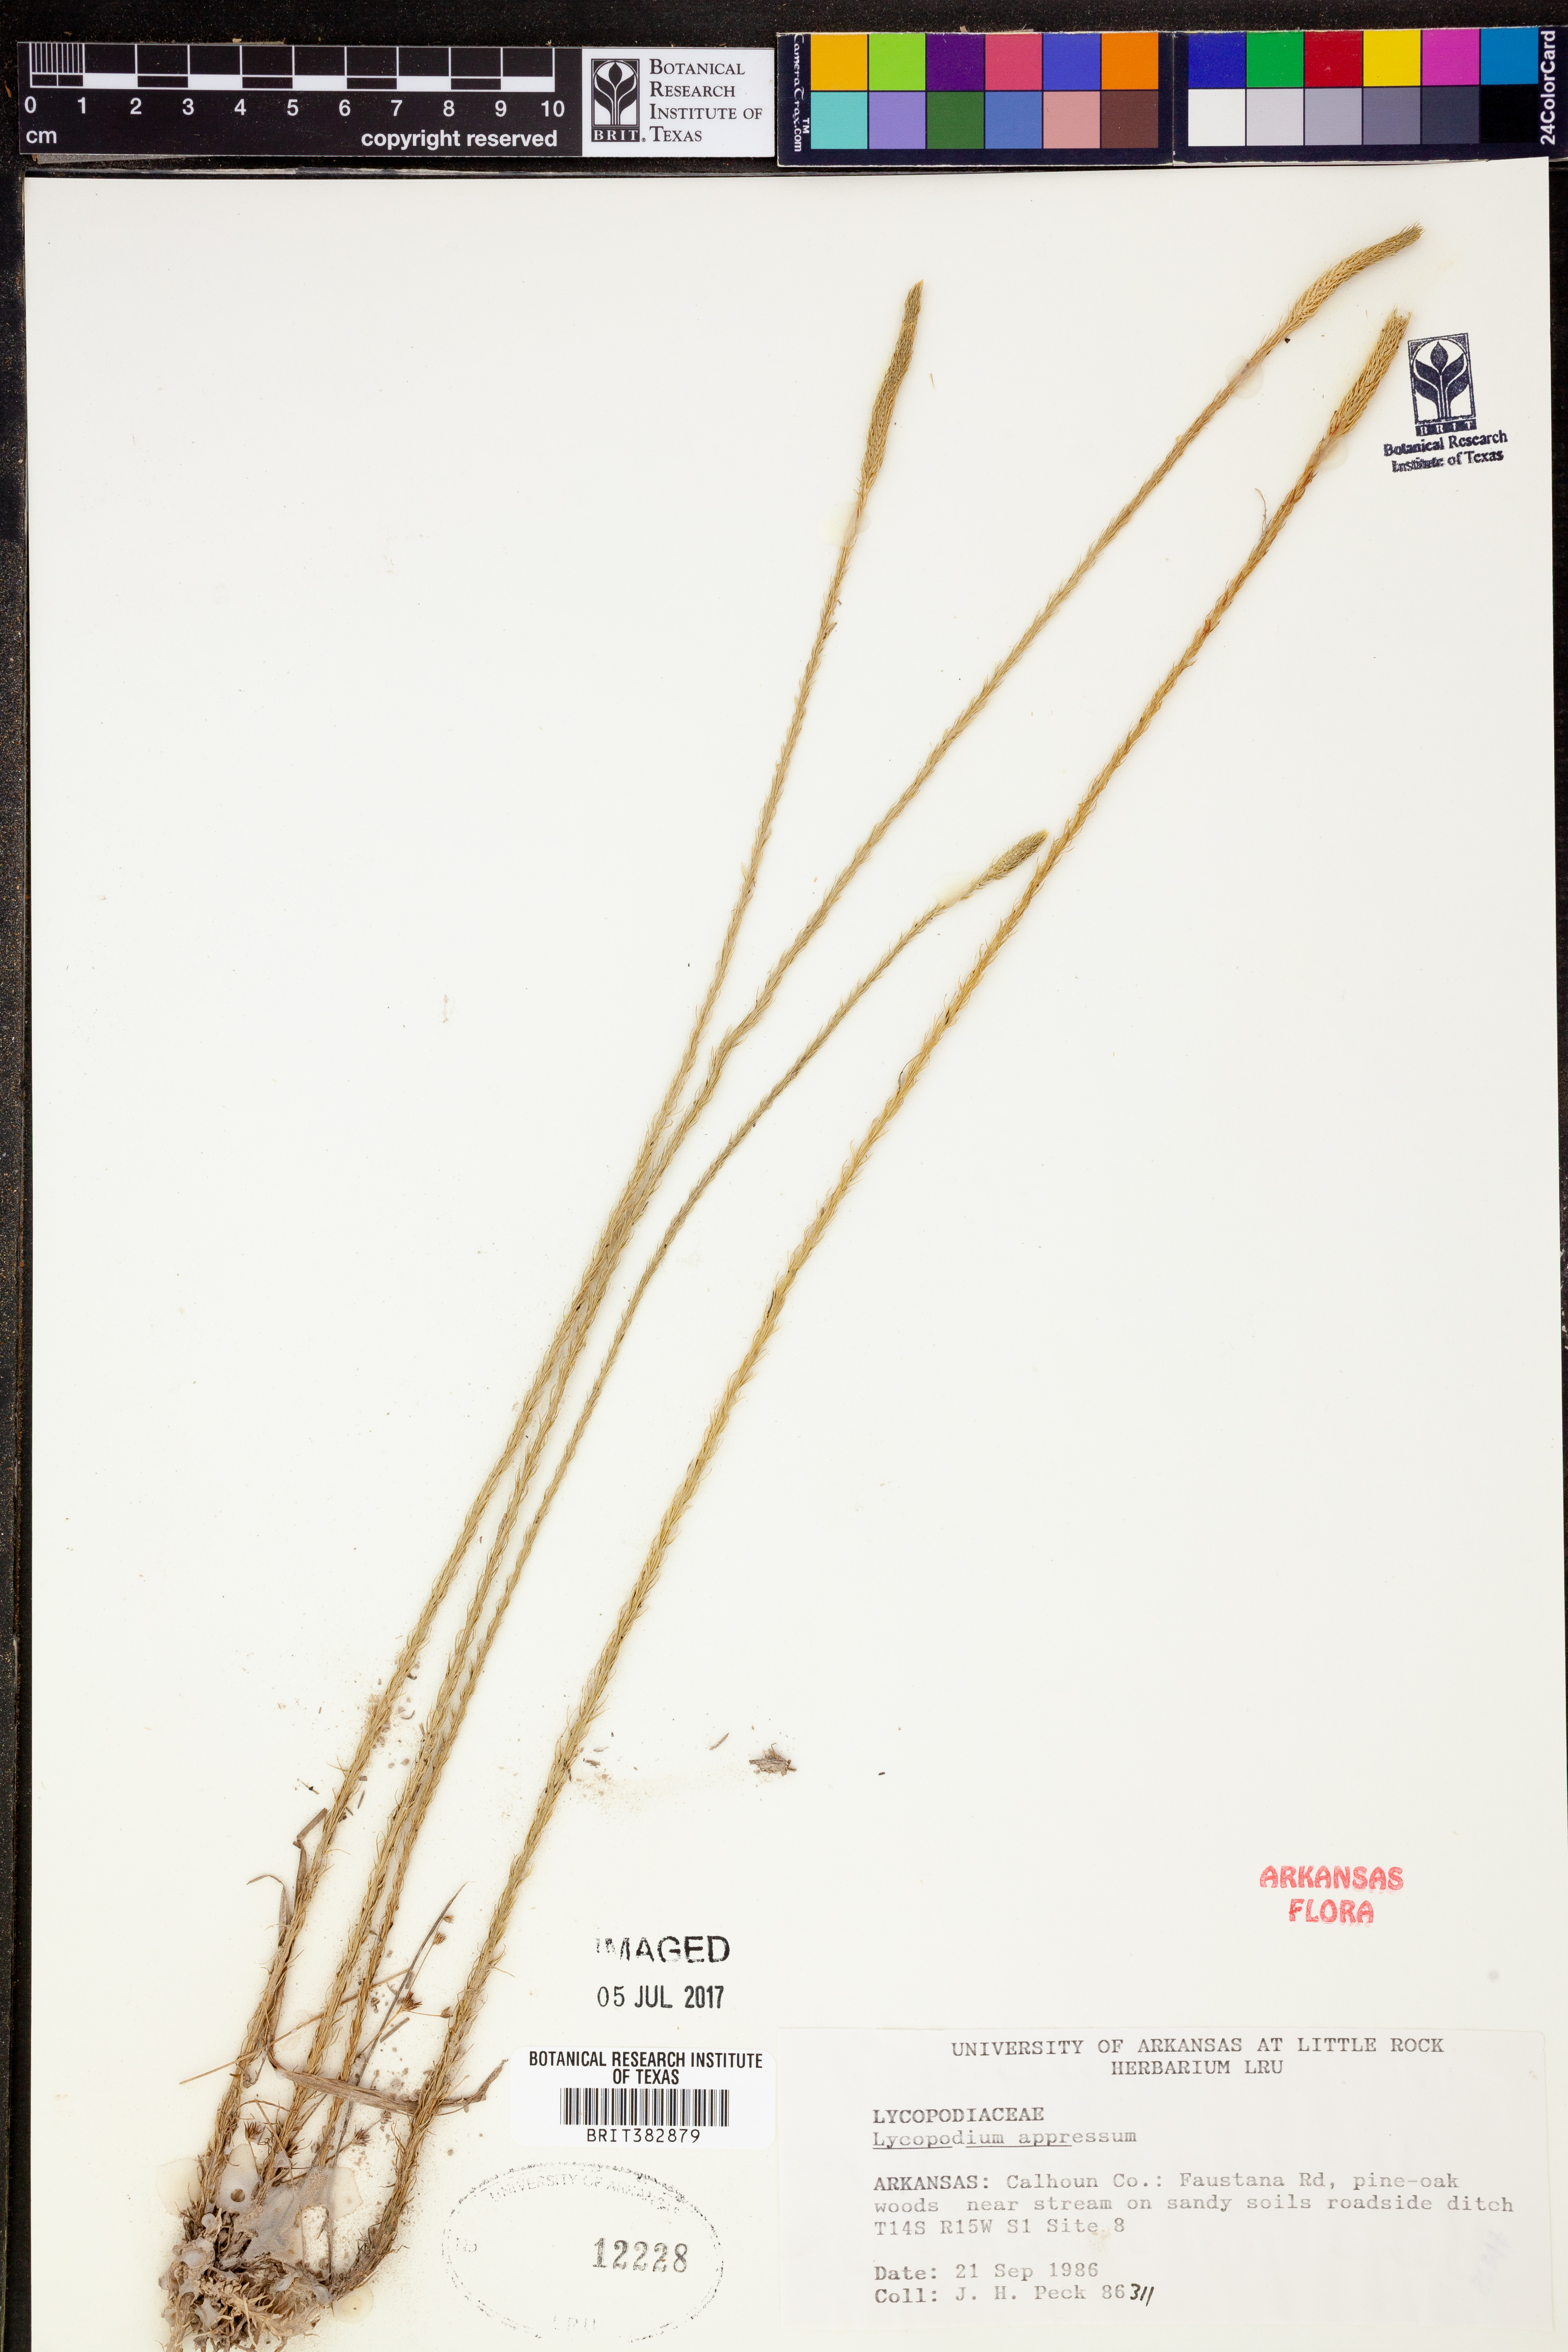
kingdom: Plantae
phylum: Tracheophyta
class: Lycopodiopsida
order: Lycopodiales
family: Lycopodiaceae
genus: Lycopodiella
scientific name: Lycopodiella appressa
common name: Appressed bog clubmoss
